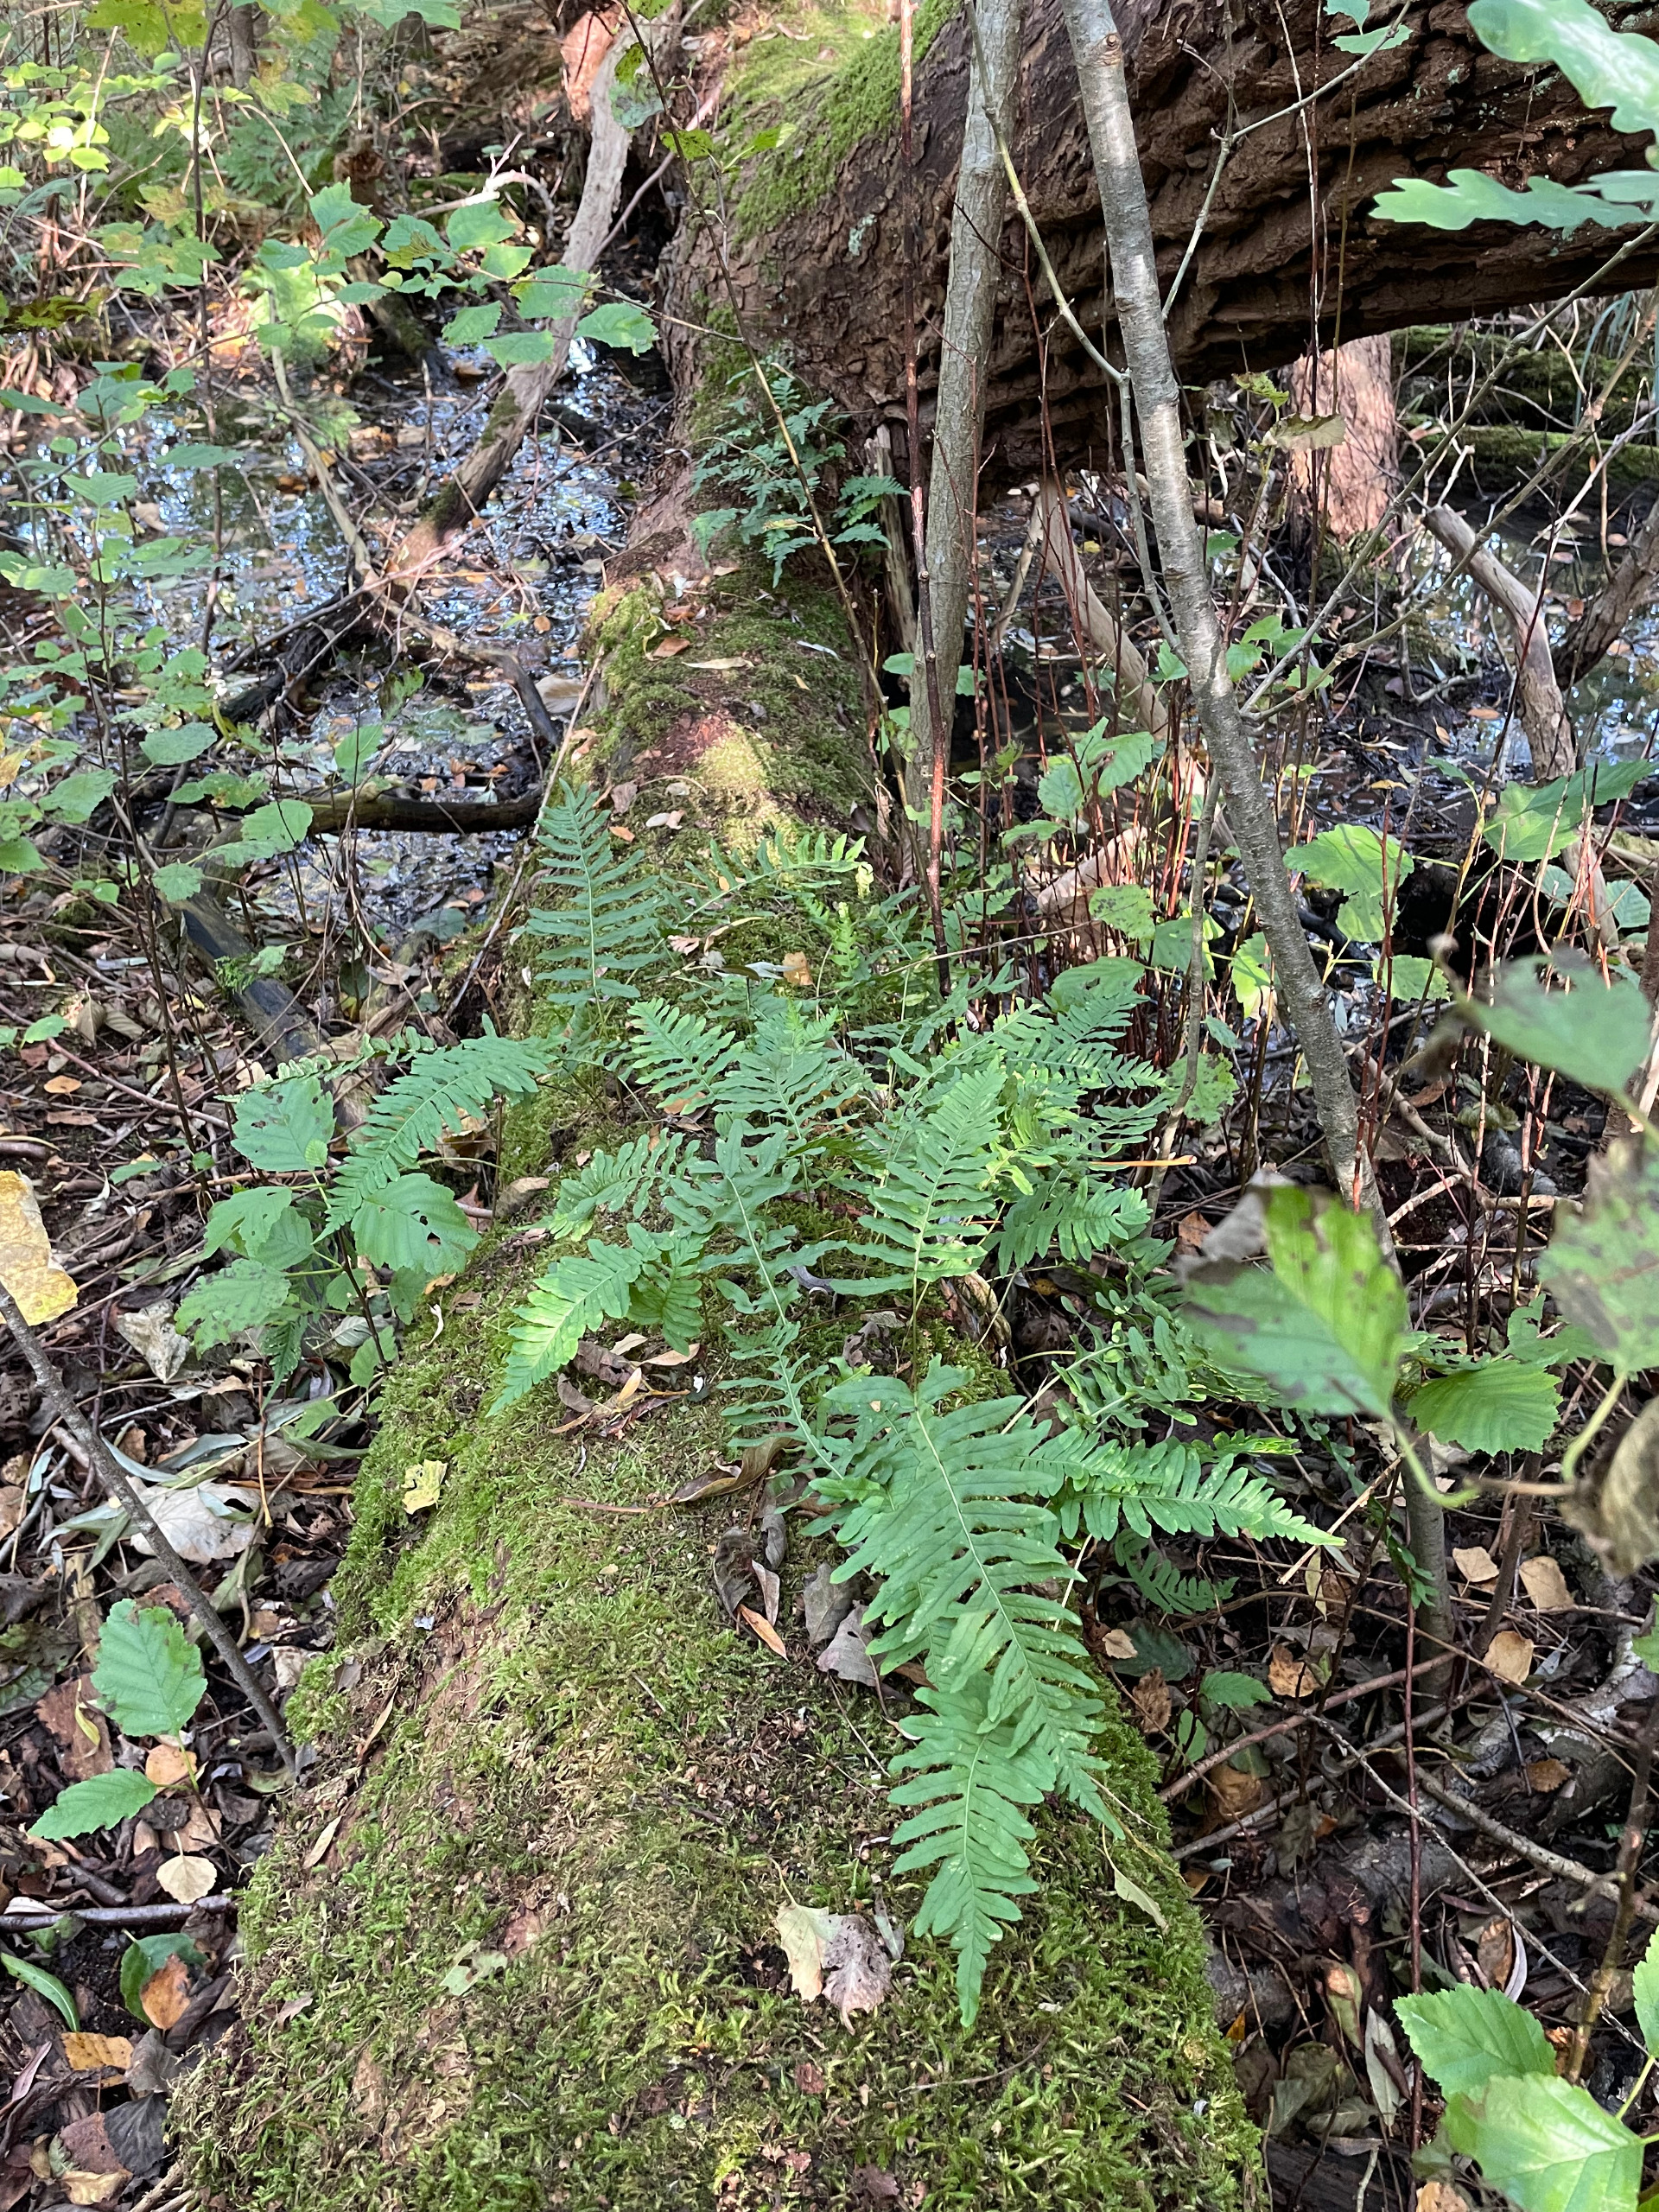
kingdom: Plantae
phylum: Tracheophyta
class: Polypodiopsida
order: Polypodiales
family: Polypodiaceae
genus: Polypodium
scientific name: Polypodium vulgare
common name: Almindelig engelsød
